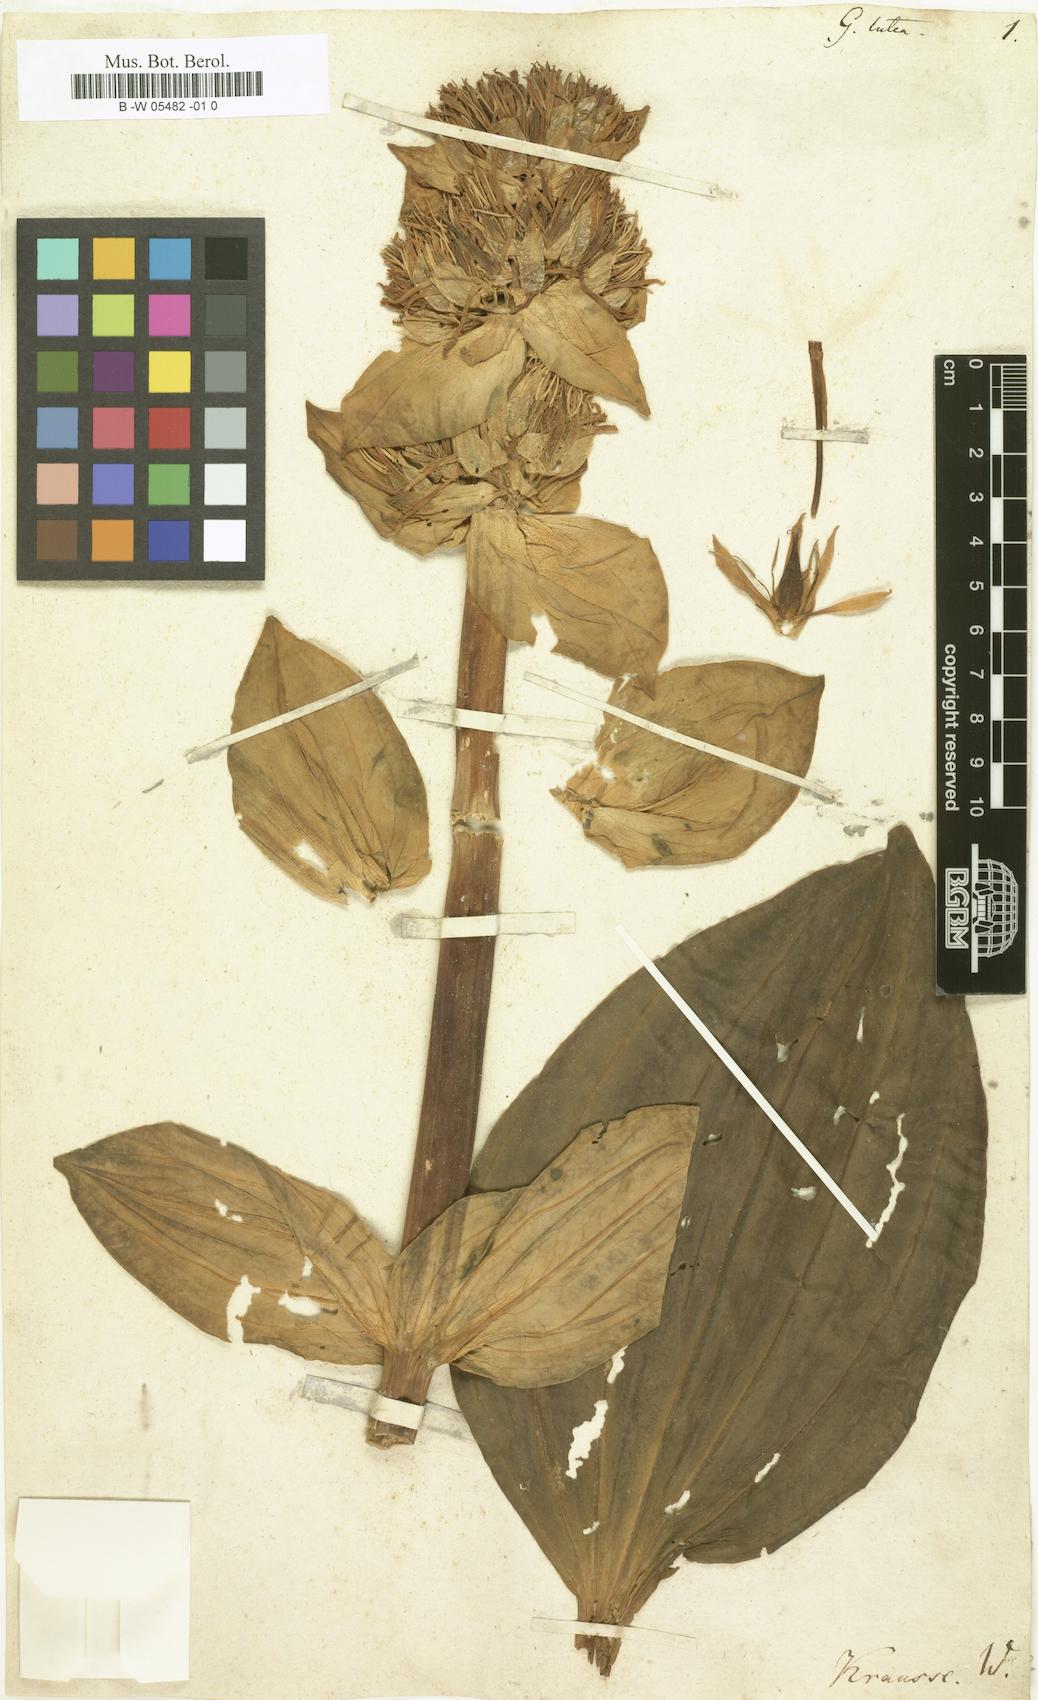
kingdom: Plantae
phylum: Tracheophyta
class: Magnoliopsida
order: Gentianales
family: Gentianaceae
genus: Gentiana
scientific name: Gentiana lutea
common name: Great yellow gentian
